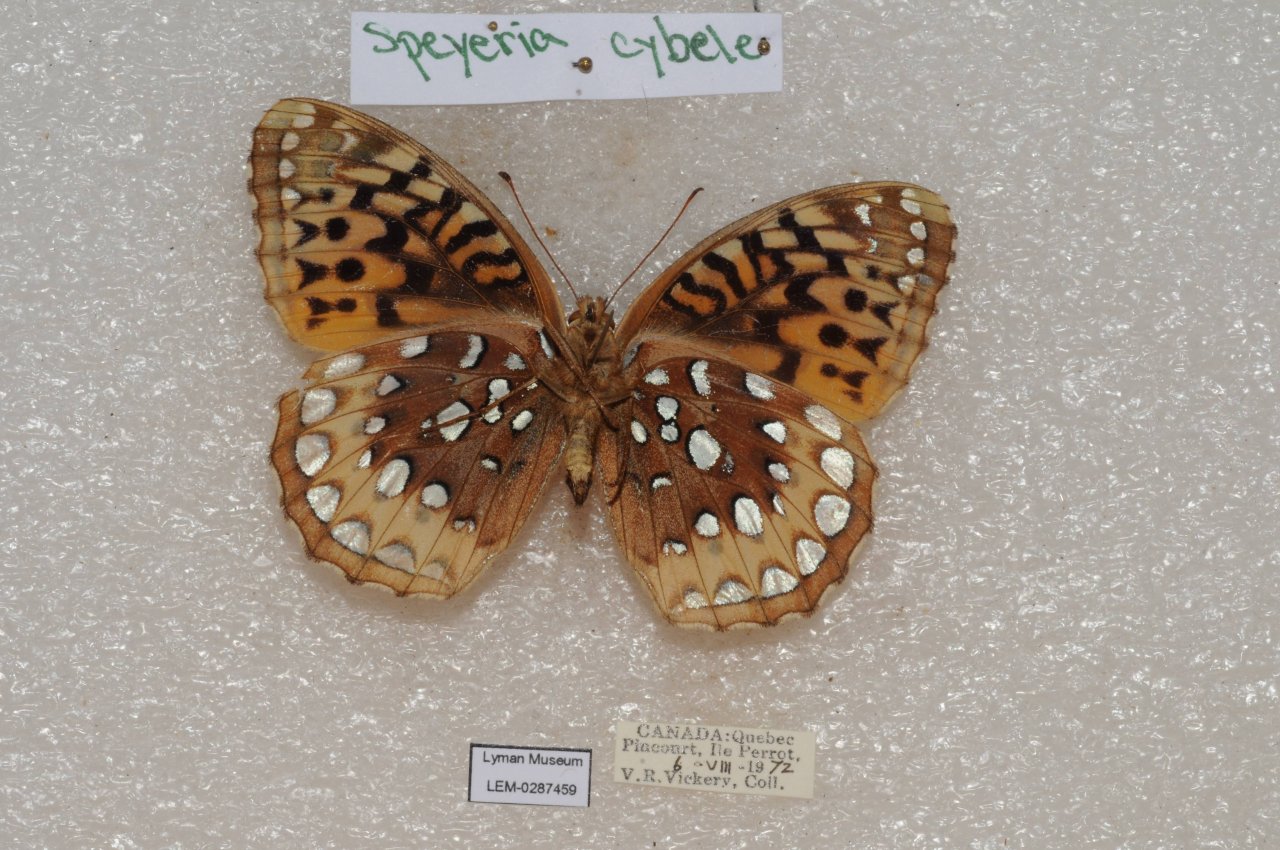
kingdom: Animalia
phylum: Arthropoda
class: Insecta
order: Lepidoptera
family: Nymphalidae
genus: Speyeria
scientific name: Speyeria cybele
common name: Great Spangled Fritillary
